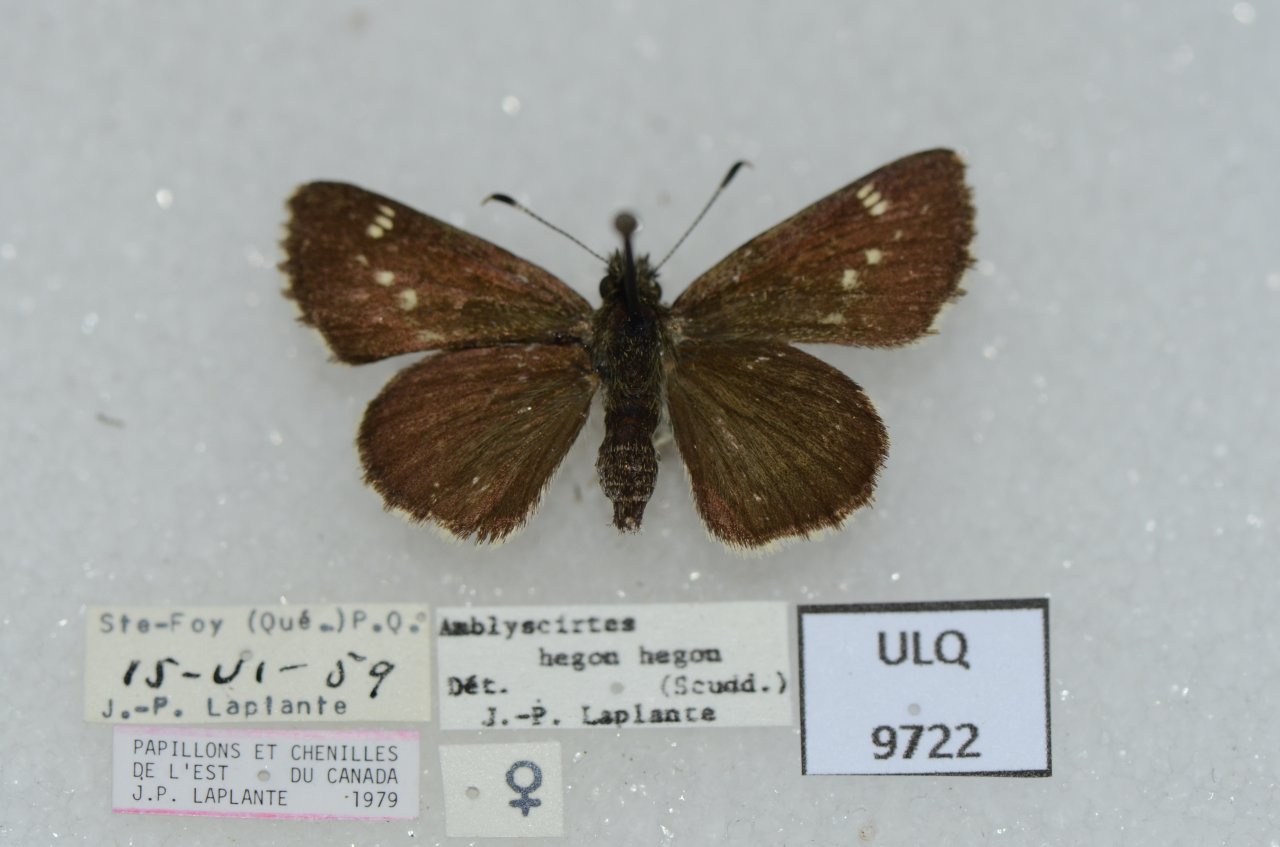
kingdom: Animalia
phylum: Arthropoda
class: Insecta
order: Lepidoptera
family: Hesperiidae
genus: Mastor
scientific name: Mastor hegon
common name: Pepper and Salt Skipper
